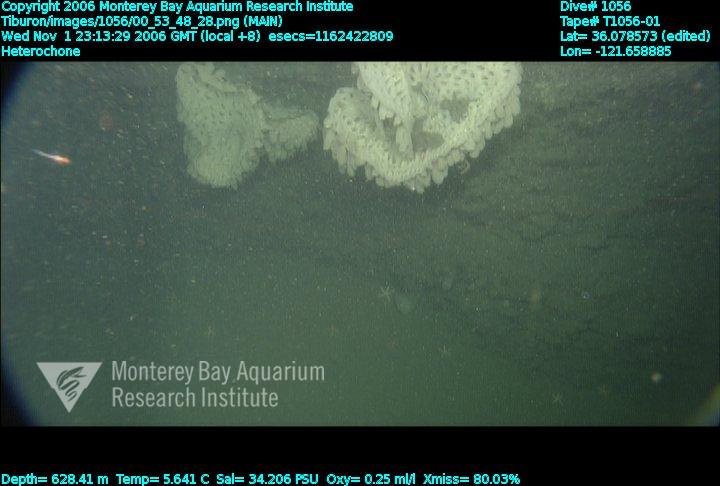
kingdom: Animalia
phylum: Porifera
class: Hexactinellida
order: Sceptrulophora
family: Aphrocallistidae
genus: Heterochone
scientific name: Heterochone
